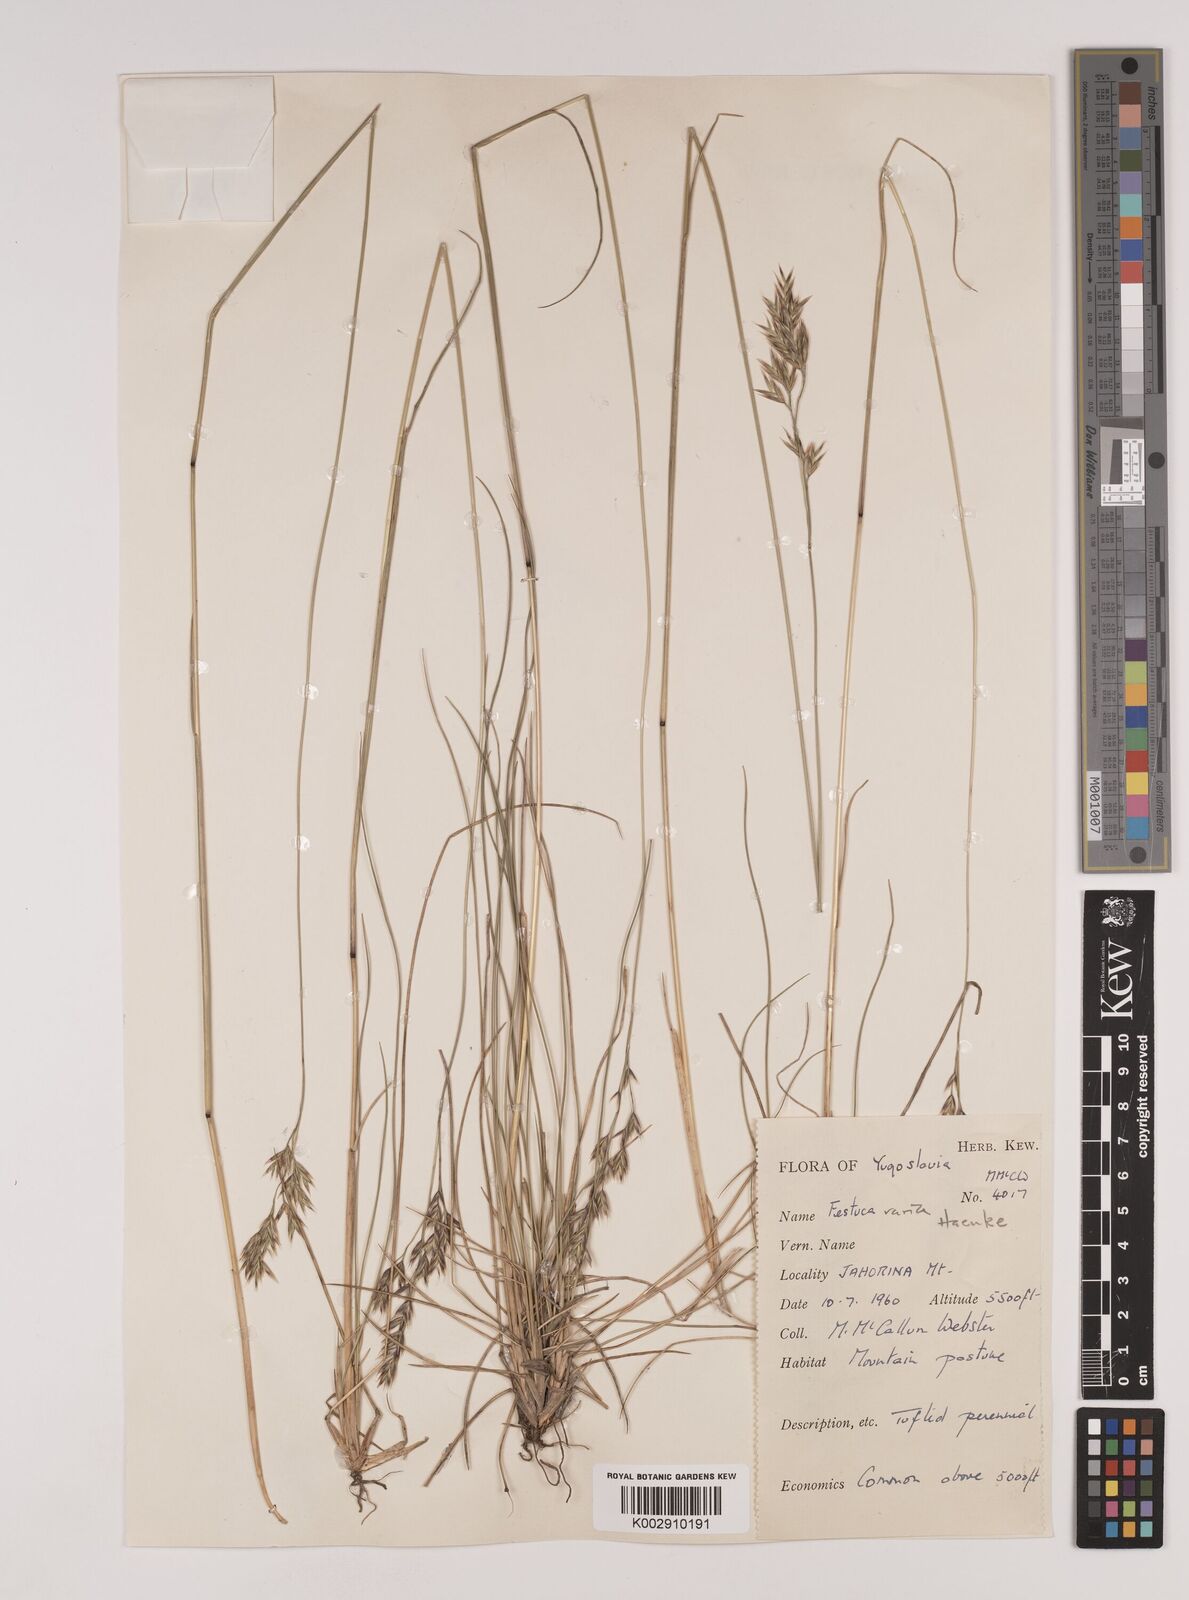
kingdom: Plantae
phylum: Tracheophyta
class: Liliopsida
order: Poales
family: Poaceae
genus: Festuca
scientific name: Festuca varia
